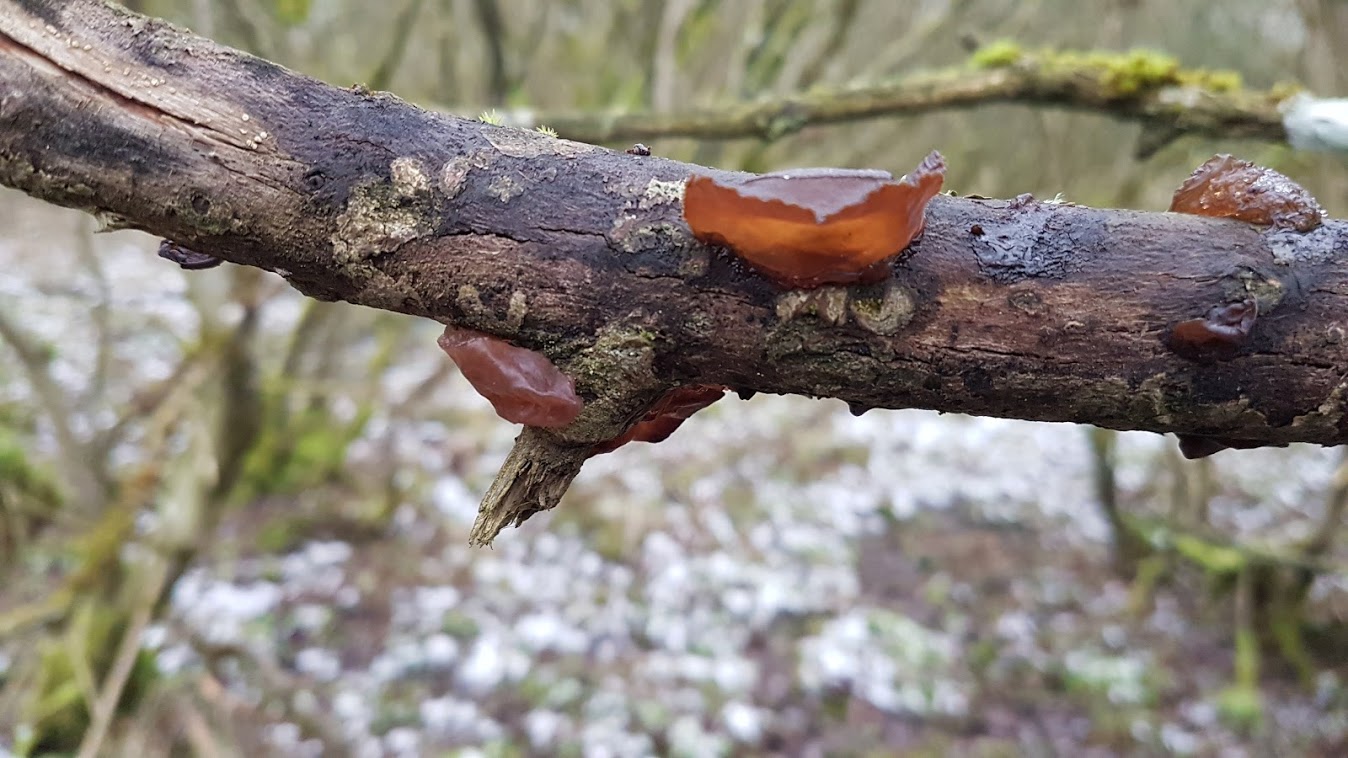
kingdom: Fungi
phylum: Basidiomycota
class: Agaricomycetes
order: Auriculariales
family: Auriculariaceae
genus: Exidia
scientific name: Exidia recisa
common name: pile-bævretop
